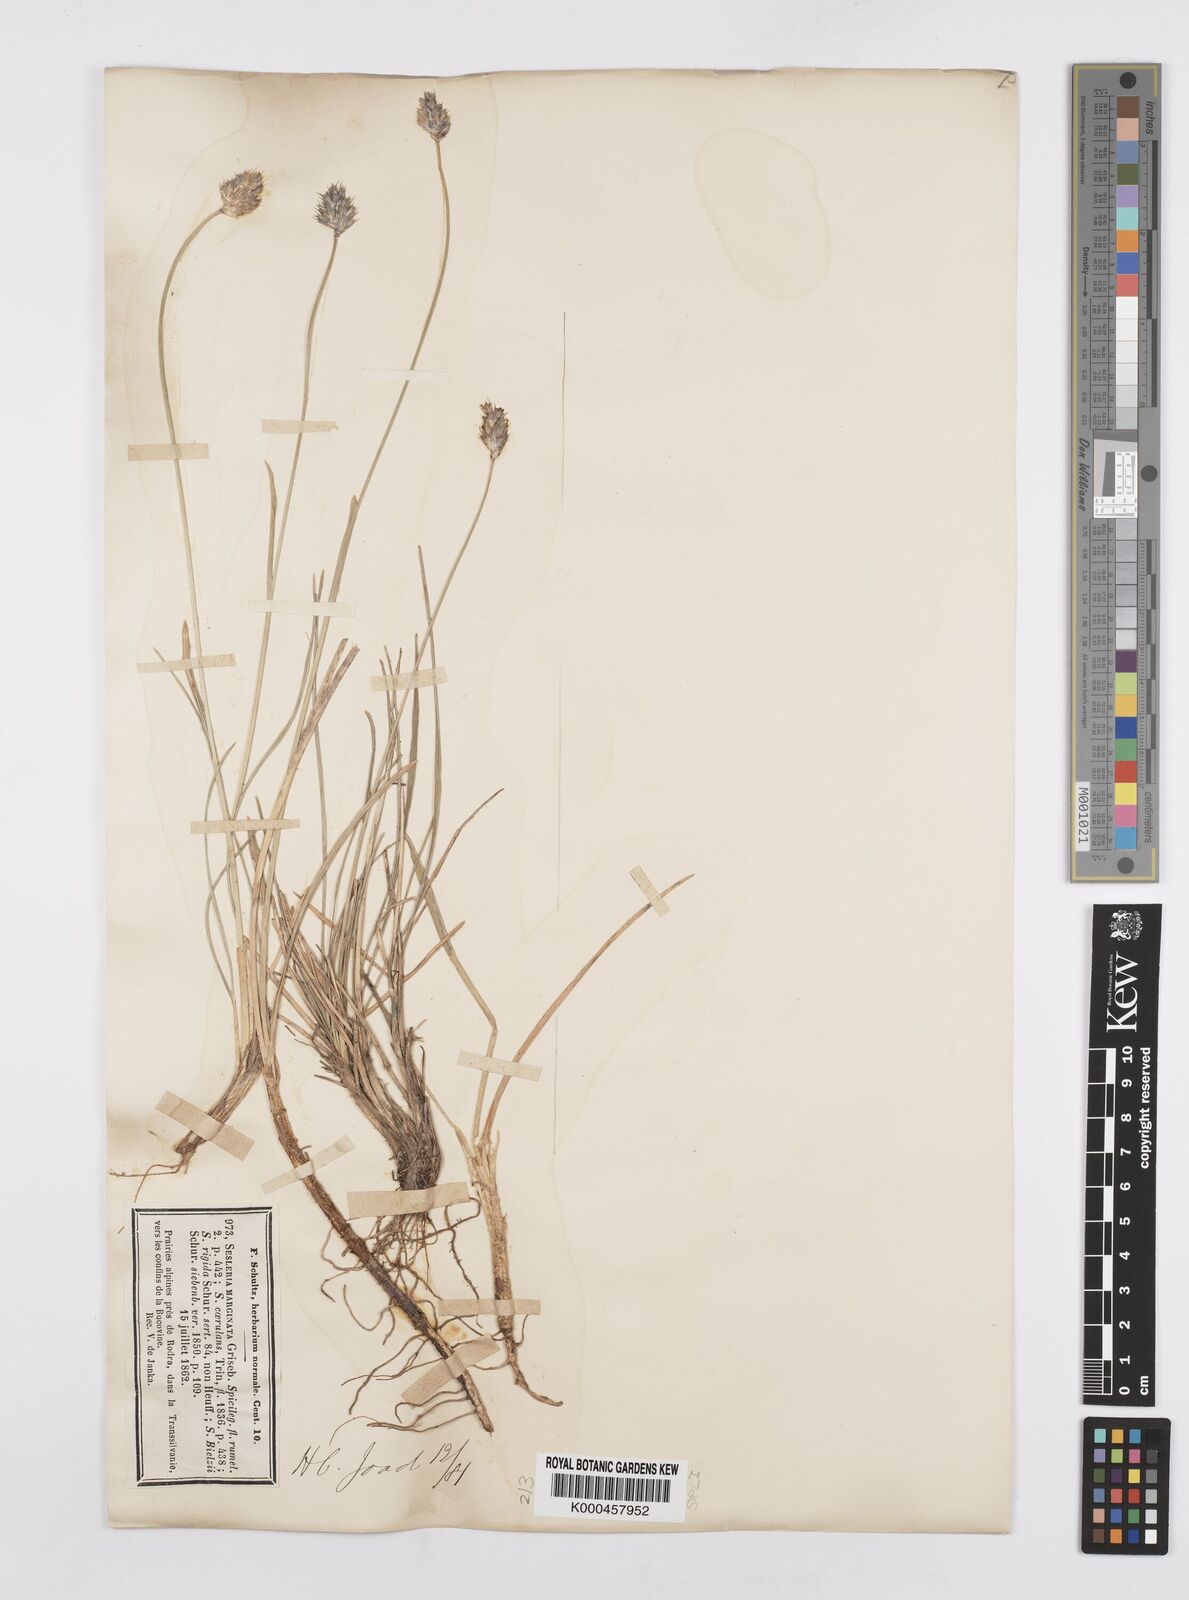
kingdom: Plantae
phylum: Tracheophyta
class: Liliopsida
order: Poales
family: Poaceae
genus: Sesleria
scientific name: Sesleria coerulans
